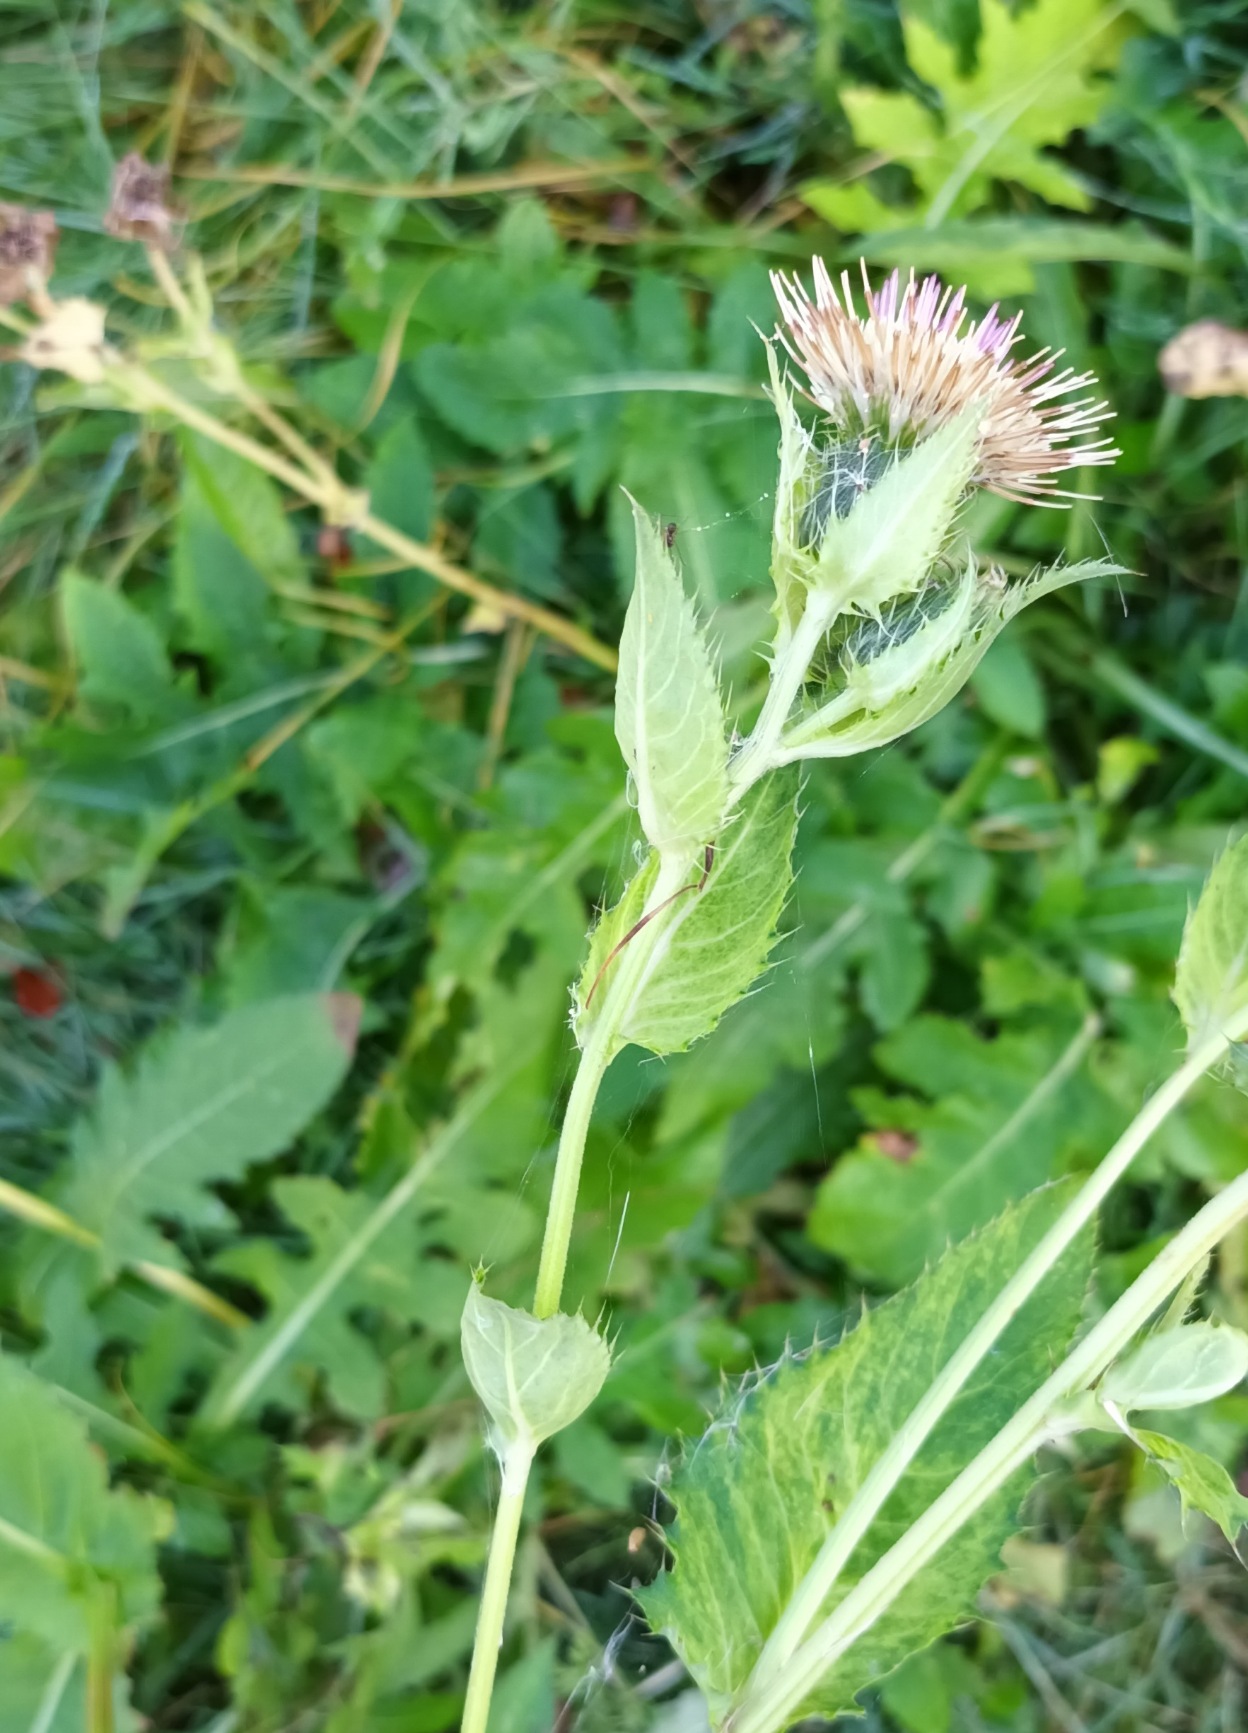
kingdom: Plantae
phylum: Tracheophyta
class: Magnoliopsida
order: Asterales
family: Asteraceae
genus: Cirsium
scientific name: Cirsium oleraceum
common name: Kål-tidsel
